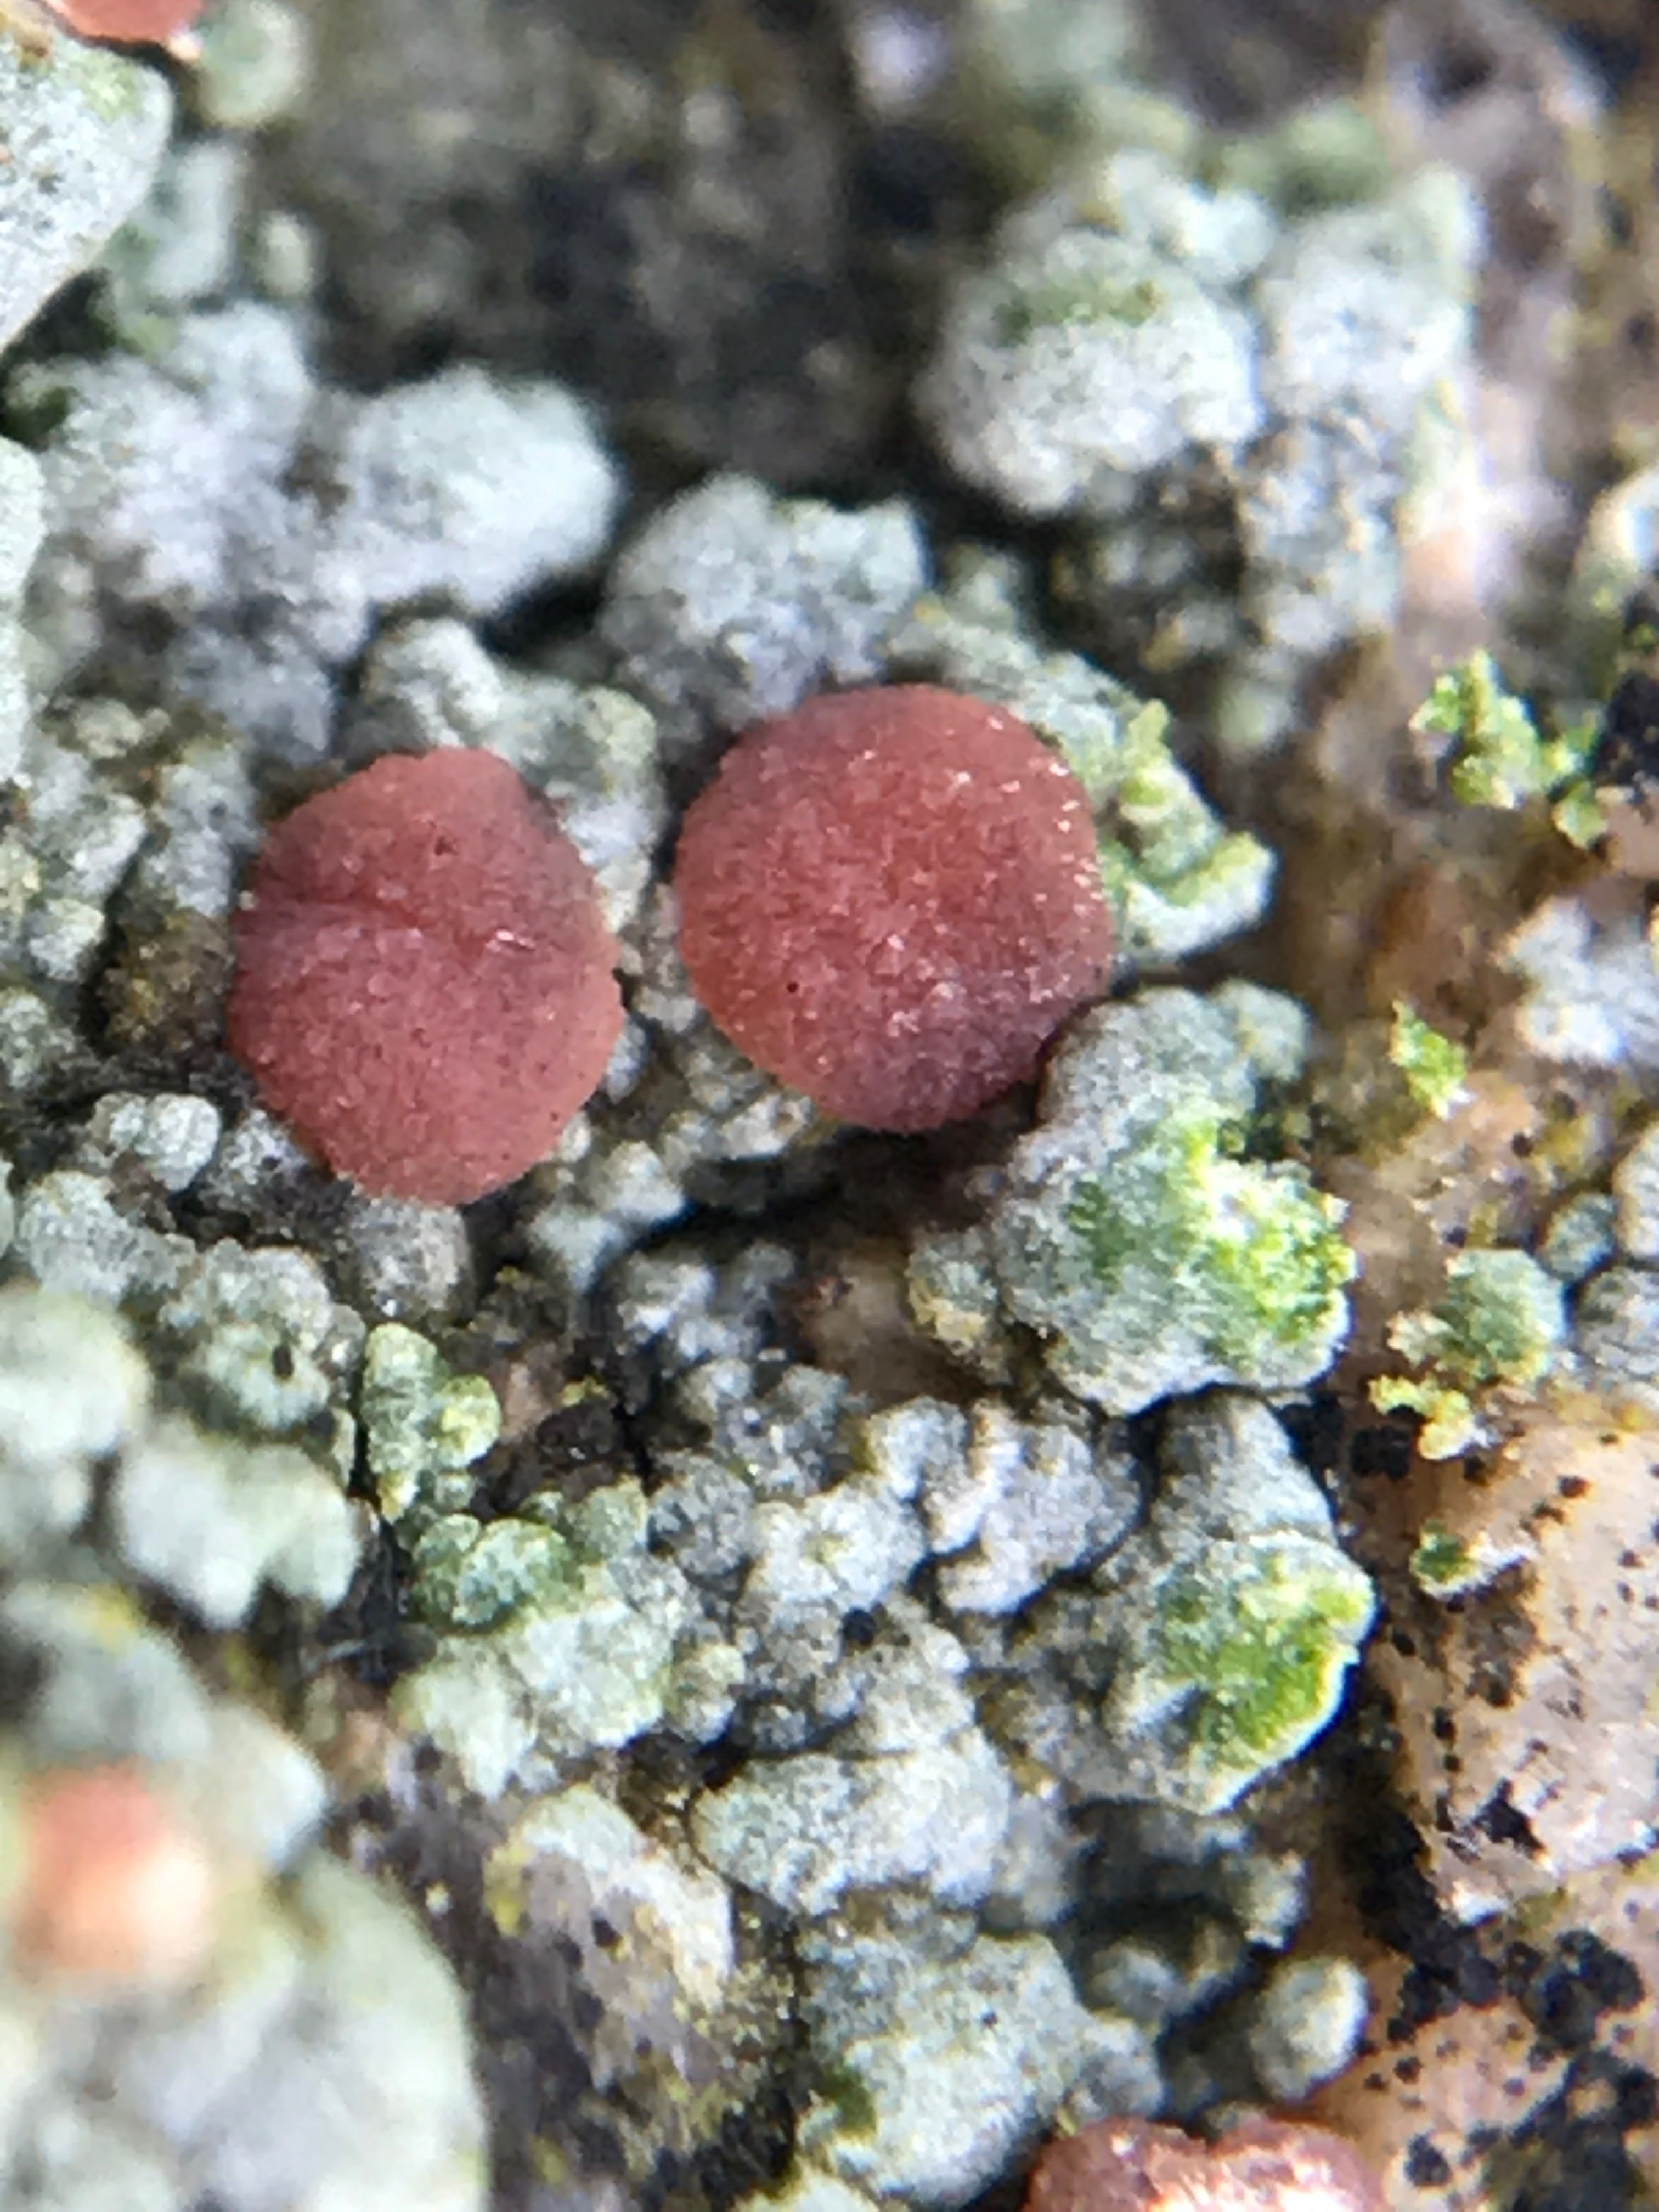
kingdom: Fungi
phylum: Ascomycota
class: Lecanoromycetes
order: Baeomycetales
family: Trapeliaceae
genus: Gallowayiopsis
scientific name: Gallowayiopsis glebulosa
